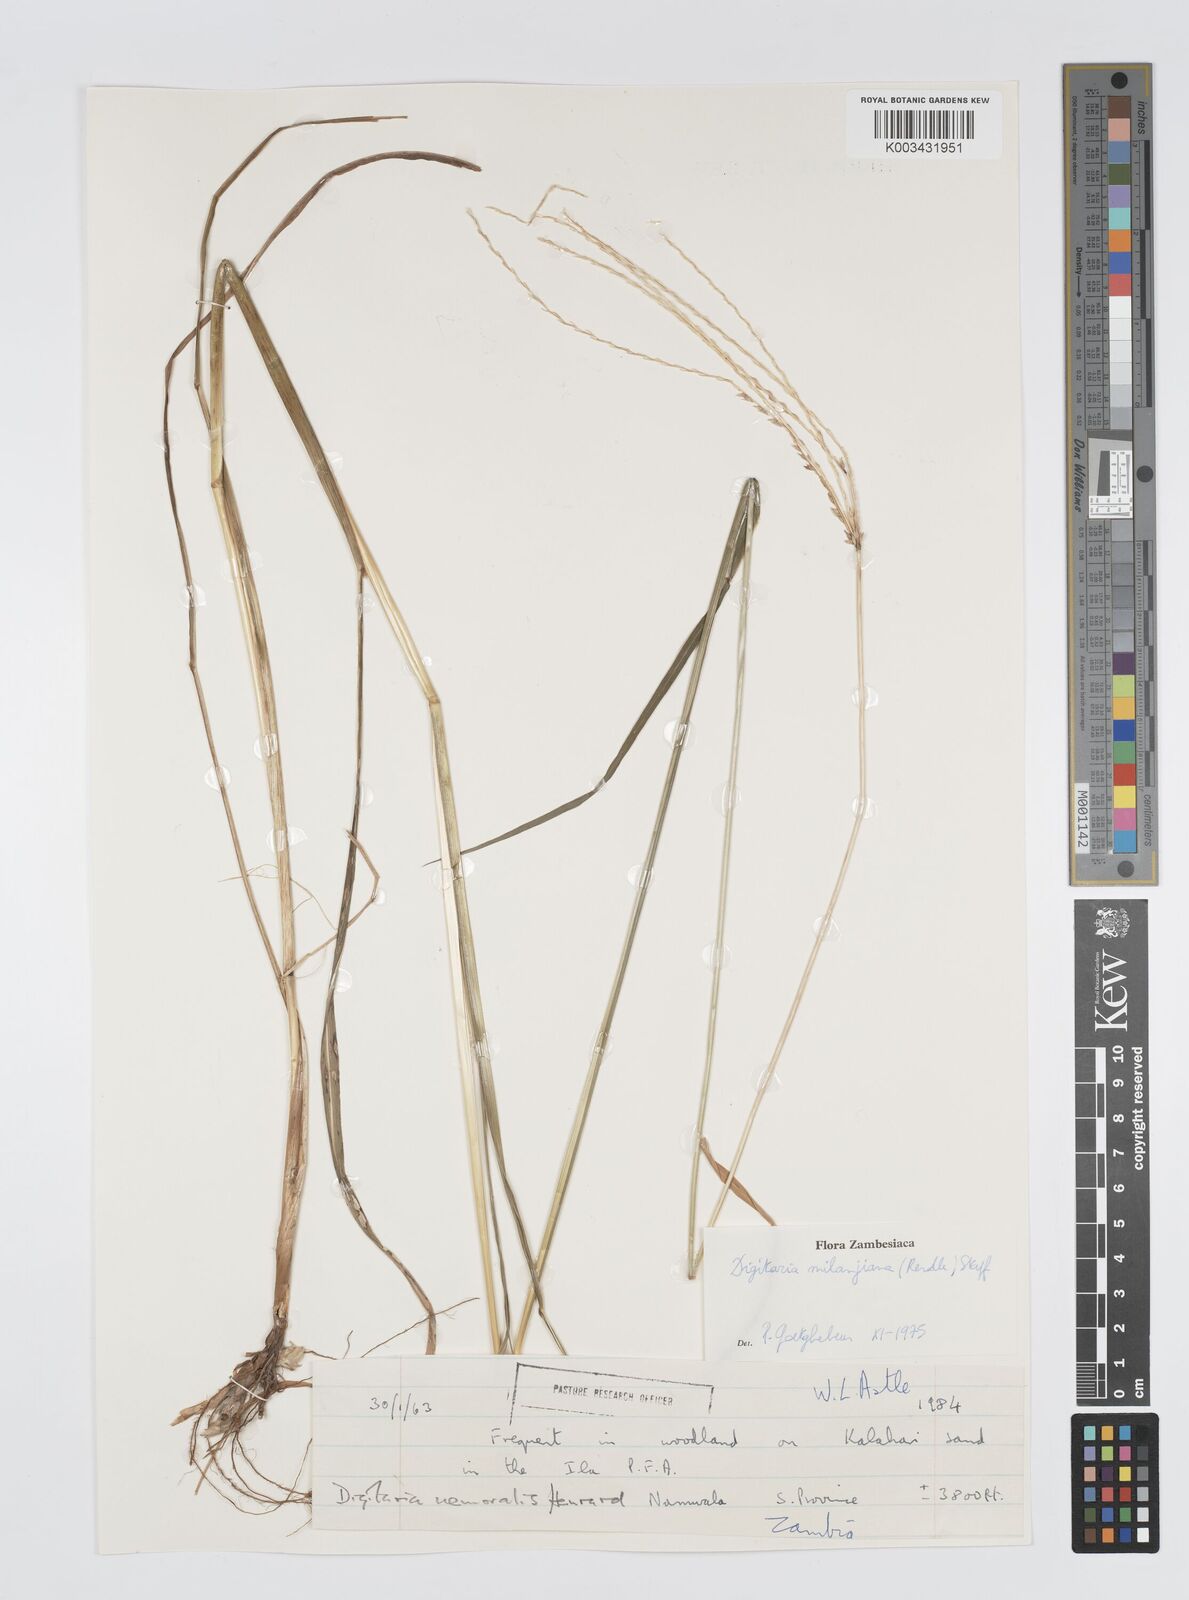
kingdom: Plantae
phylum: Tracheophyta
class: Liliopsida
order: Poales
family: Poaceae
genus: Digitaria
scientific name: Digitaria milanjiana
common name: Madagascar crabgrass
